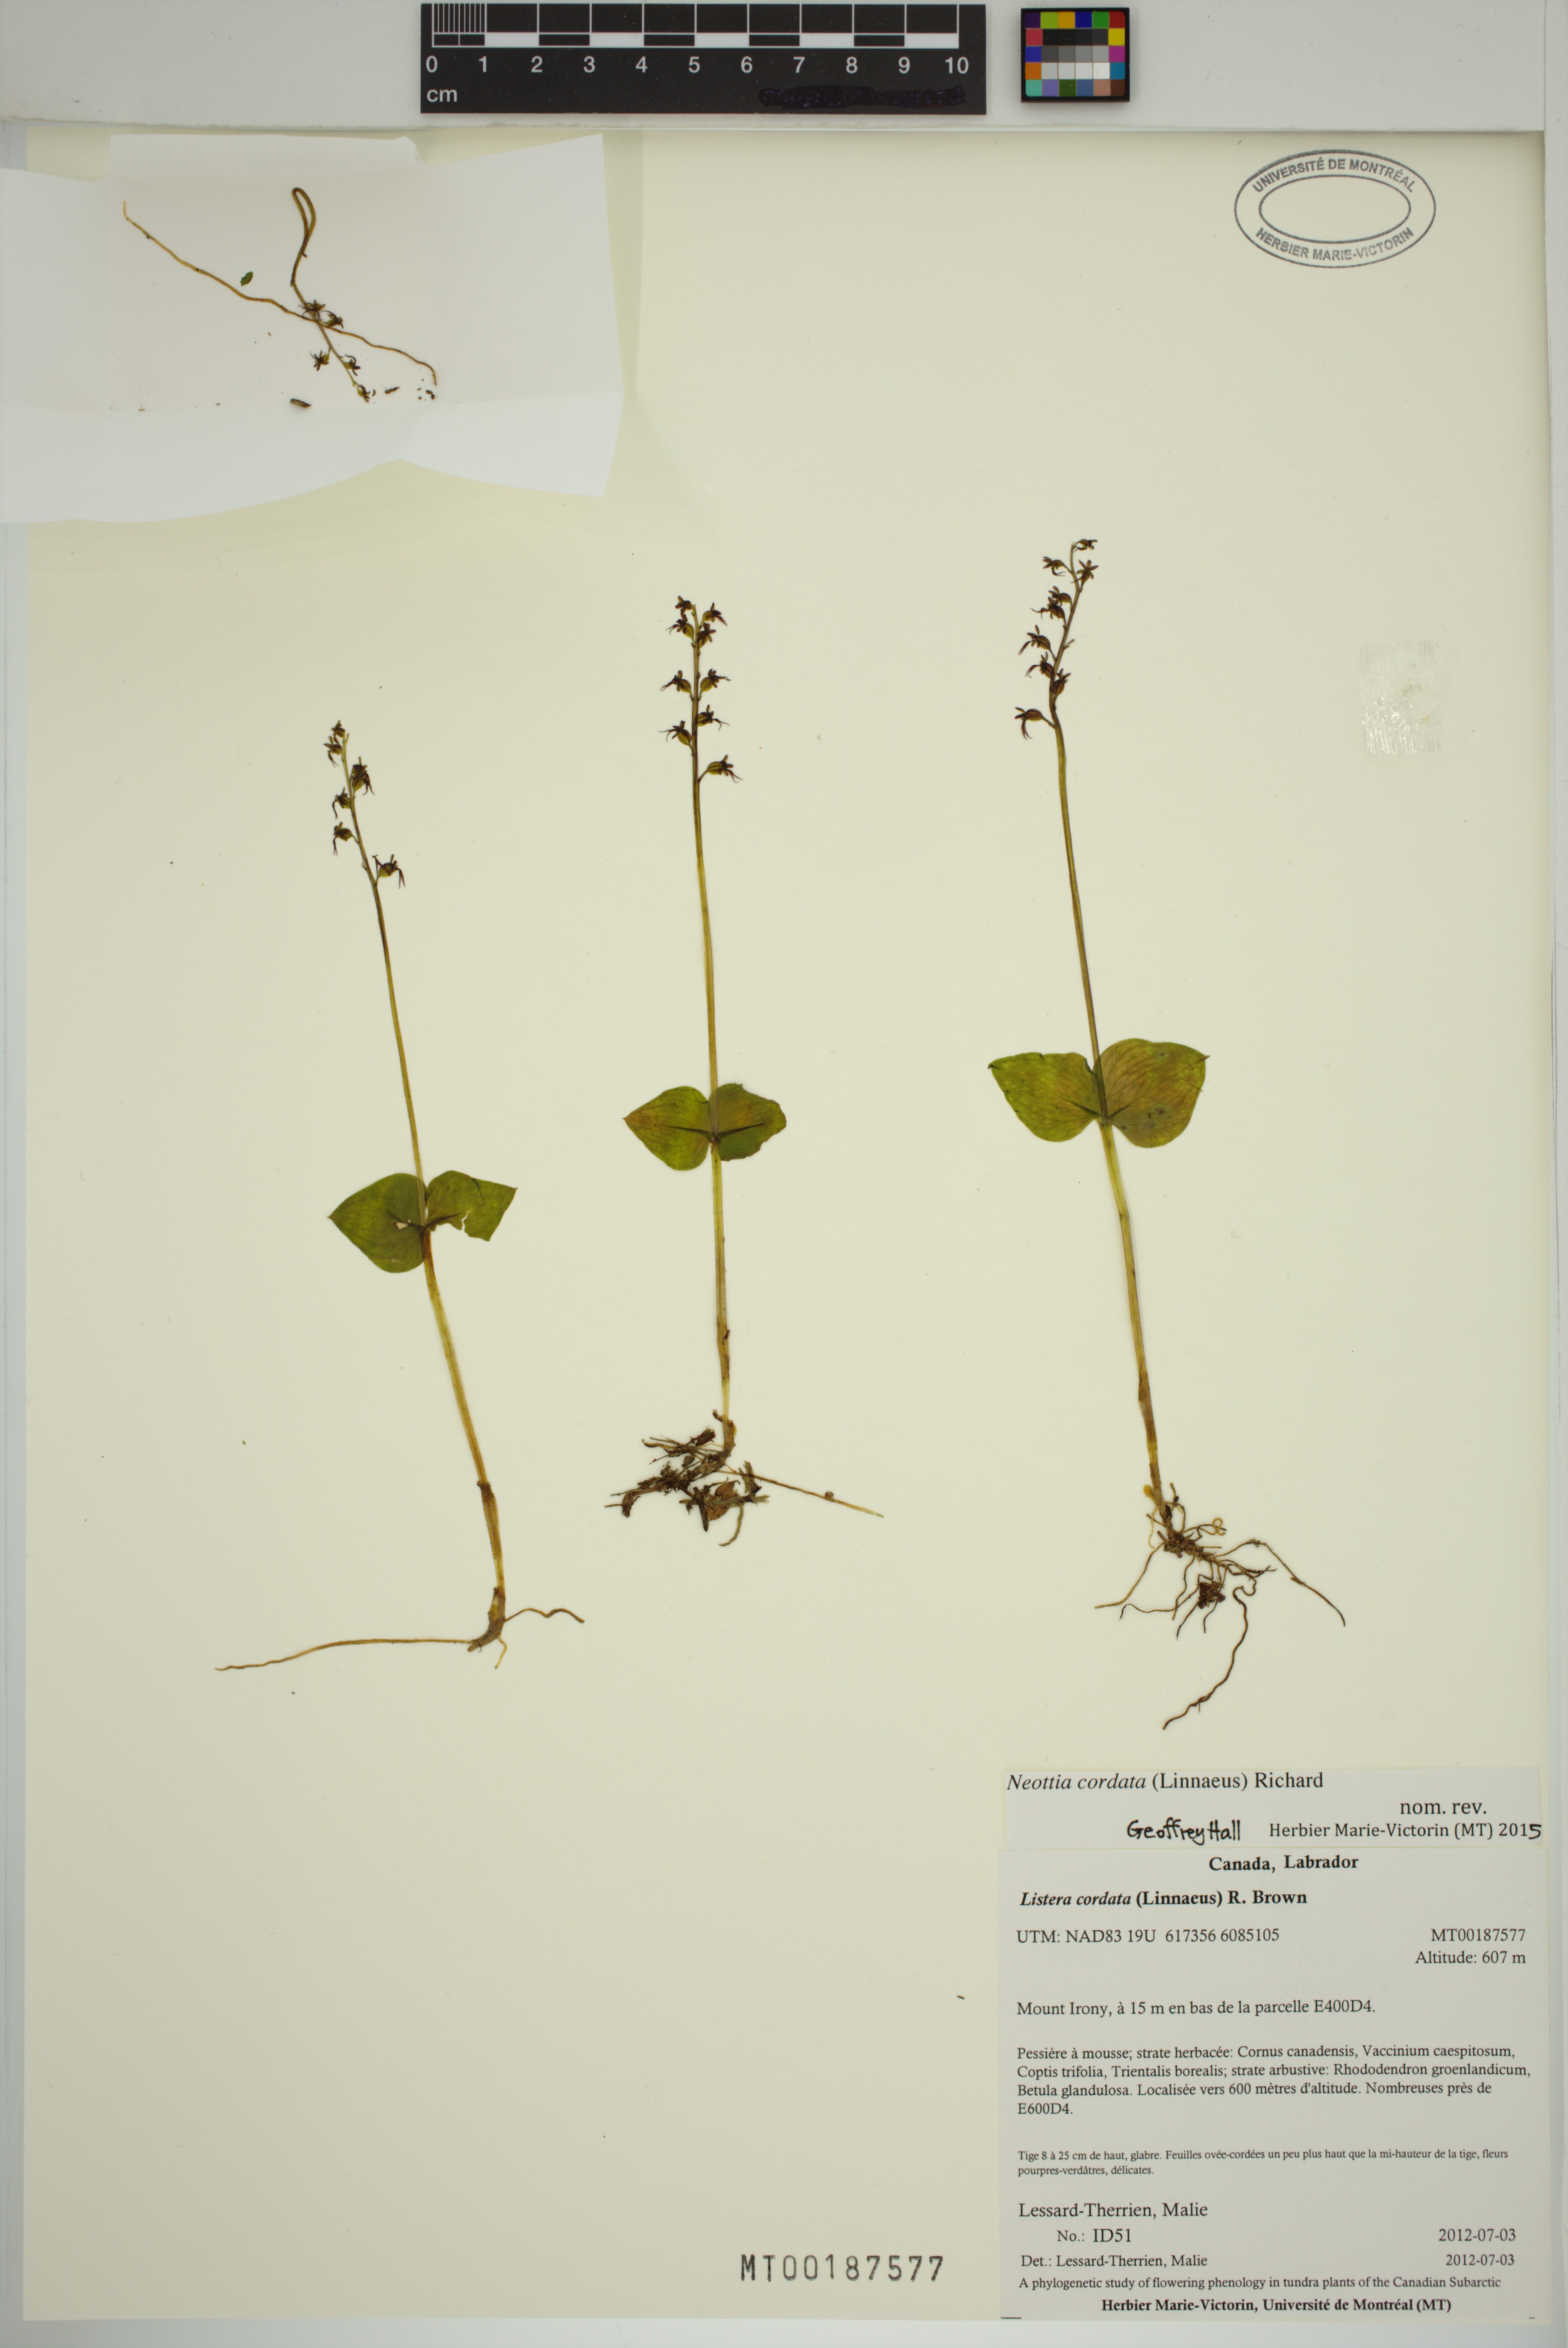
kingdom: Plantae
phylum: Tracheophyta
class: Liliopsida
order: Asparagales
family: Orchidaceae
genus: Neottia
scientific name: Neottia cordata
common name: Lesser twayblade
